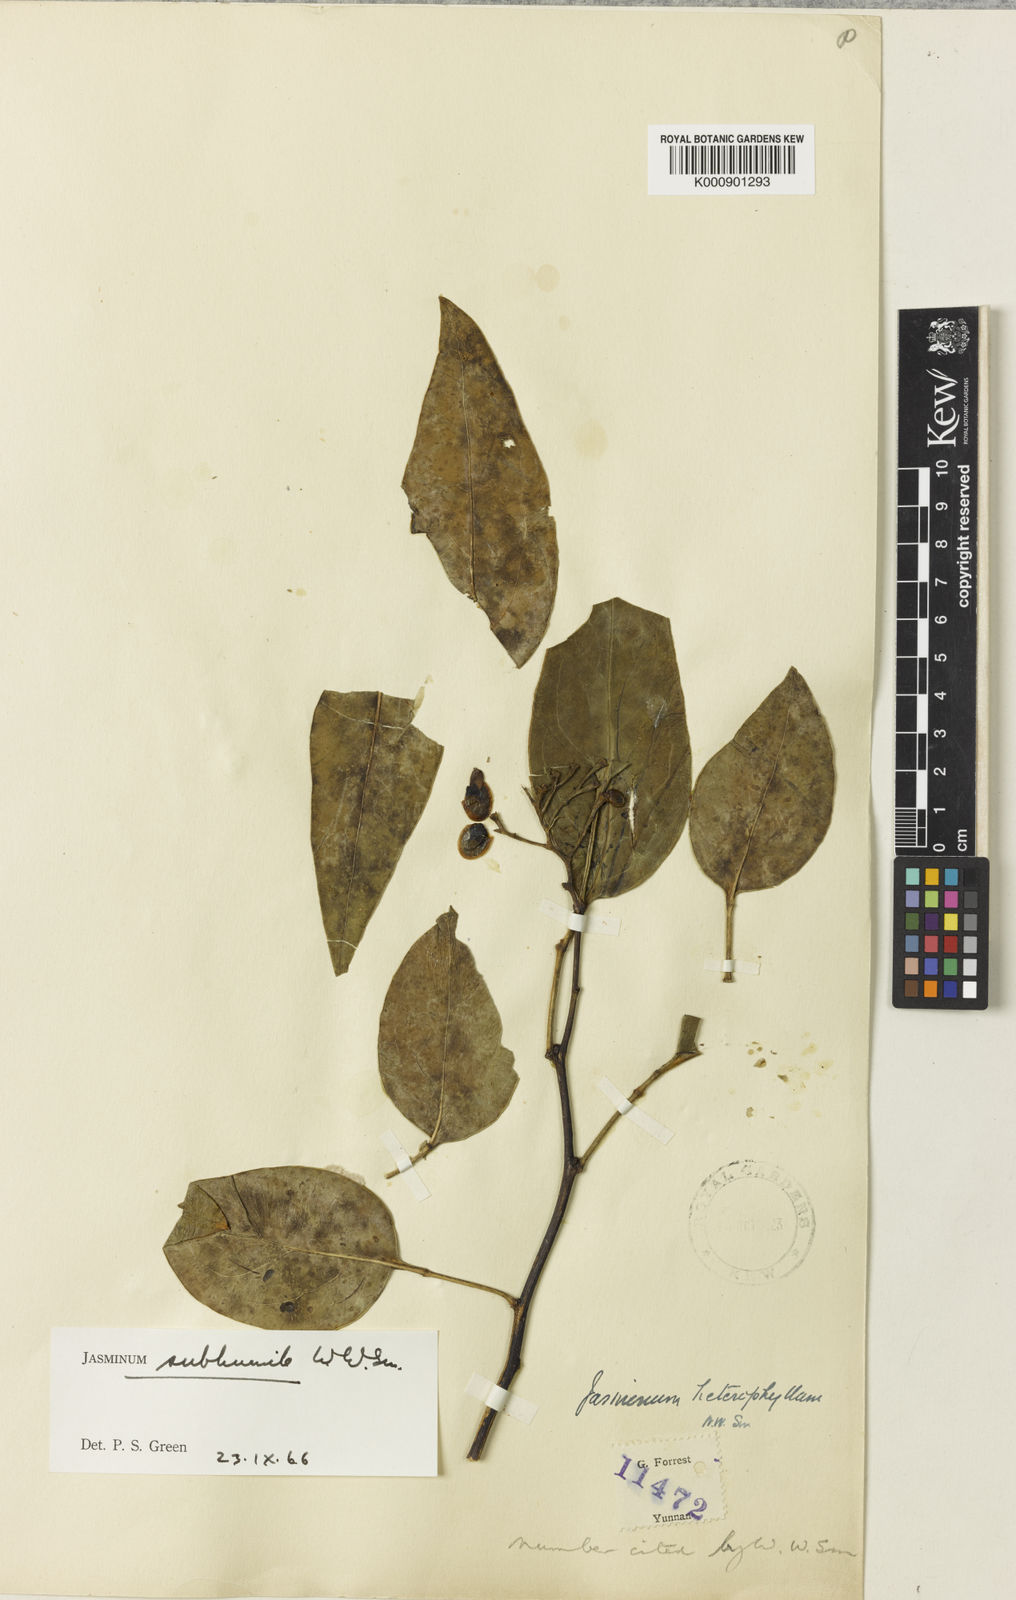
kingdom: Plantae
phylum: Tracheophyta
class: Magnoliopsida
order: Lamiales
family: Oleaceae
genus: Chrysojasminum
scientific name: Chrysojasminum subhumile
